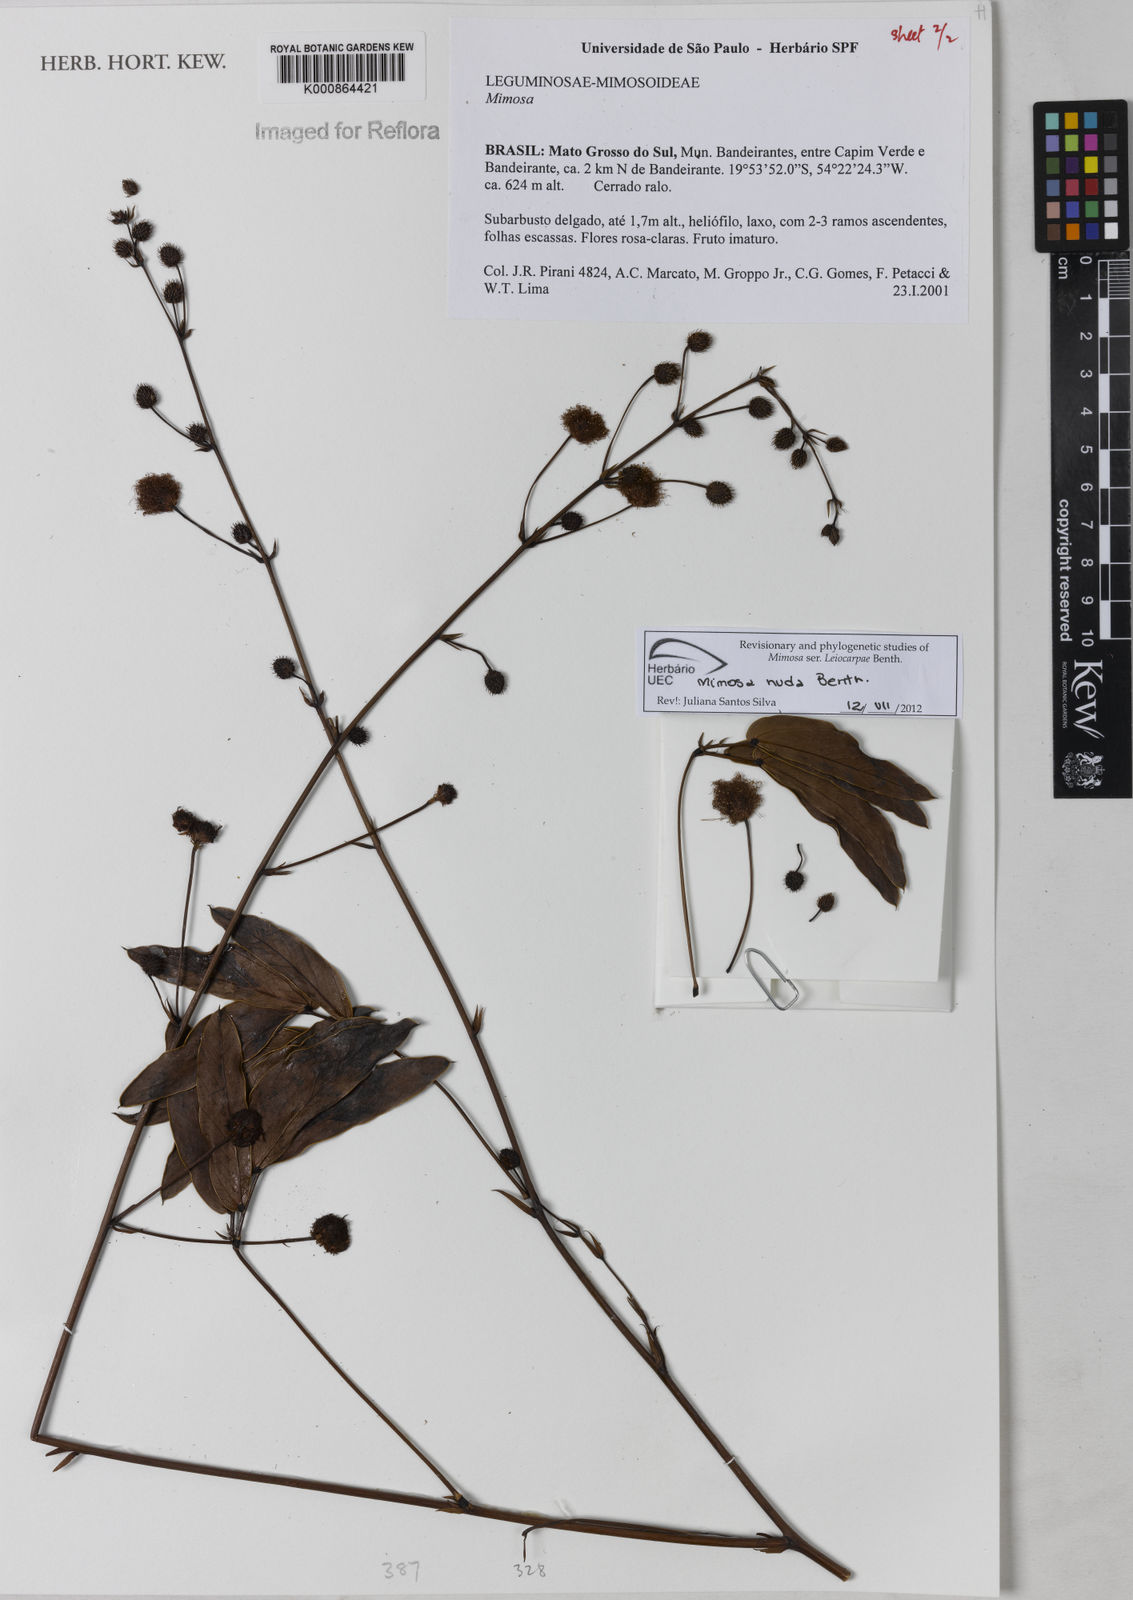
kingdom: Plantae
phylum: Tracheophyta
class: Magnoliopsida
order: Fabales
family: Fabaceae
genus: Mimosa
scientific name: Mimosa debilis
